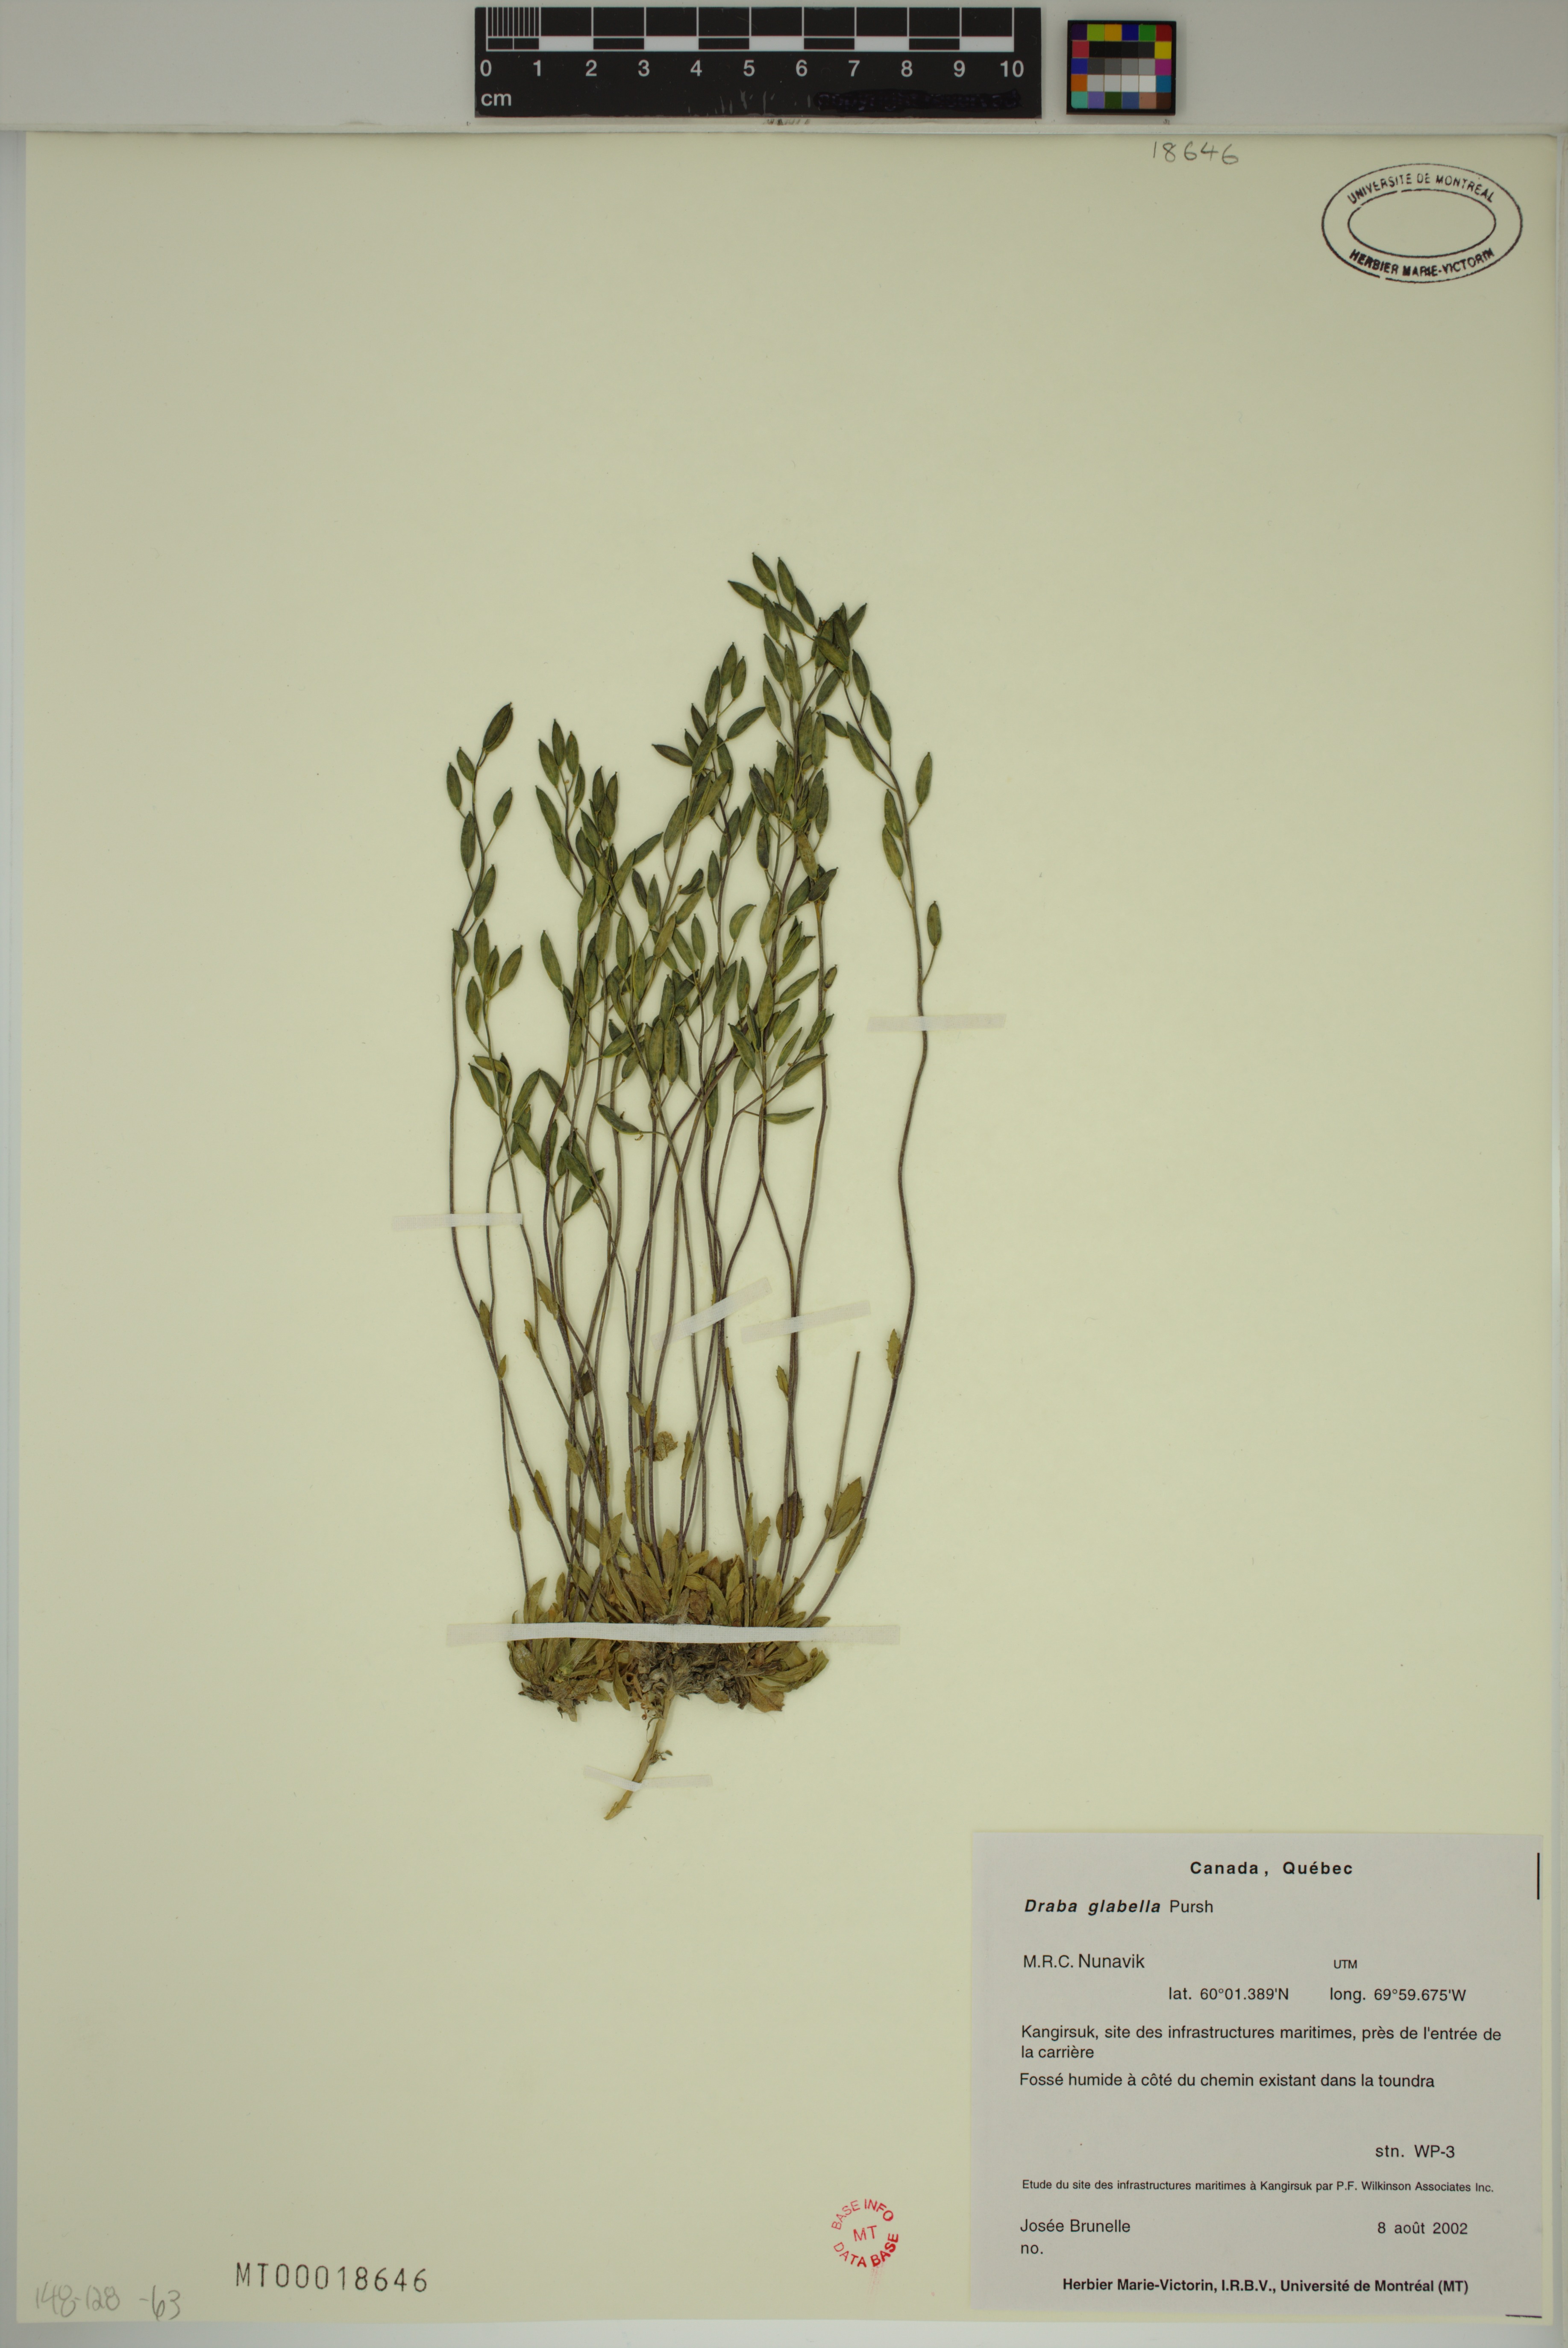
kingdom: Plantae
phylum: Tracheophyta
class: Magnoliopsida
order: Brassicales
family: Brassicaceae
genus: Draba
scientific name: Draba glabella
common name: Glaucous draba
